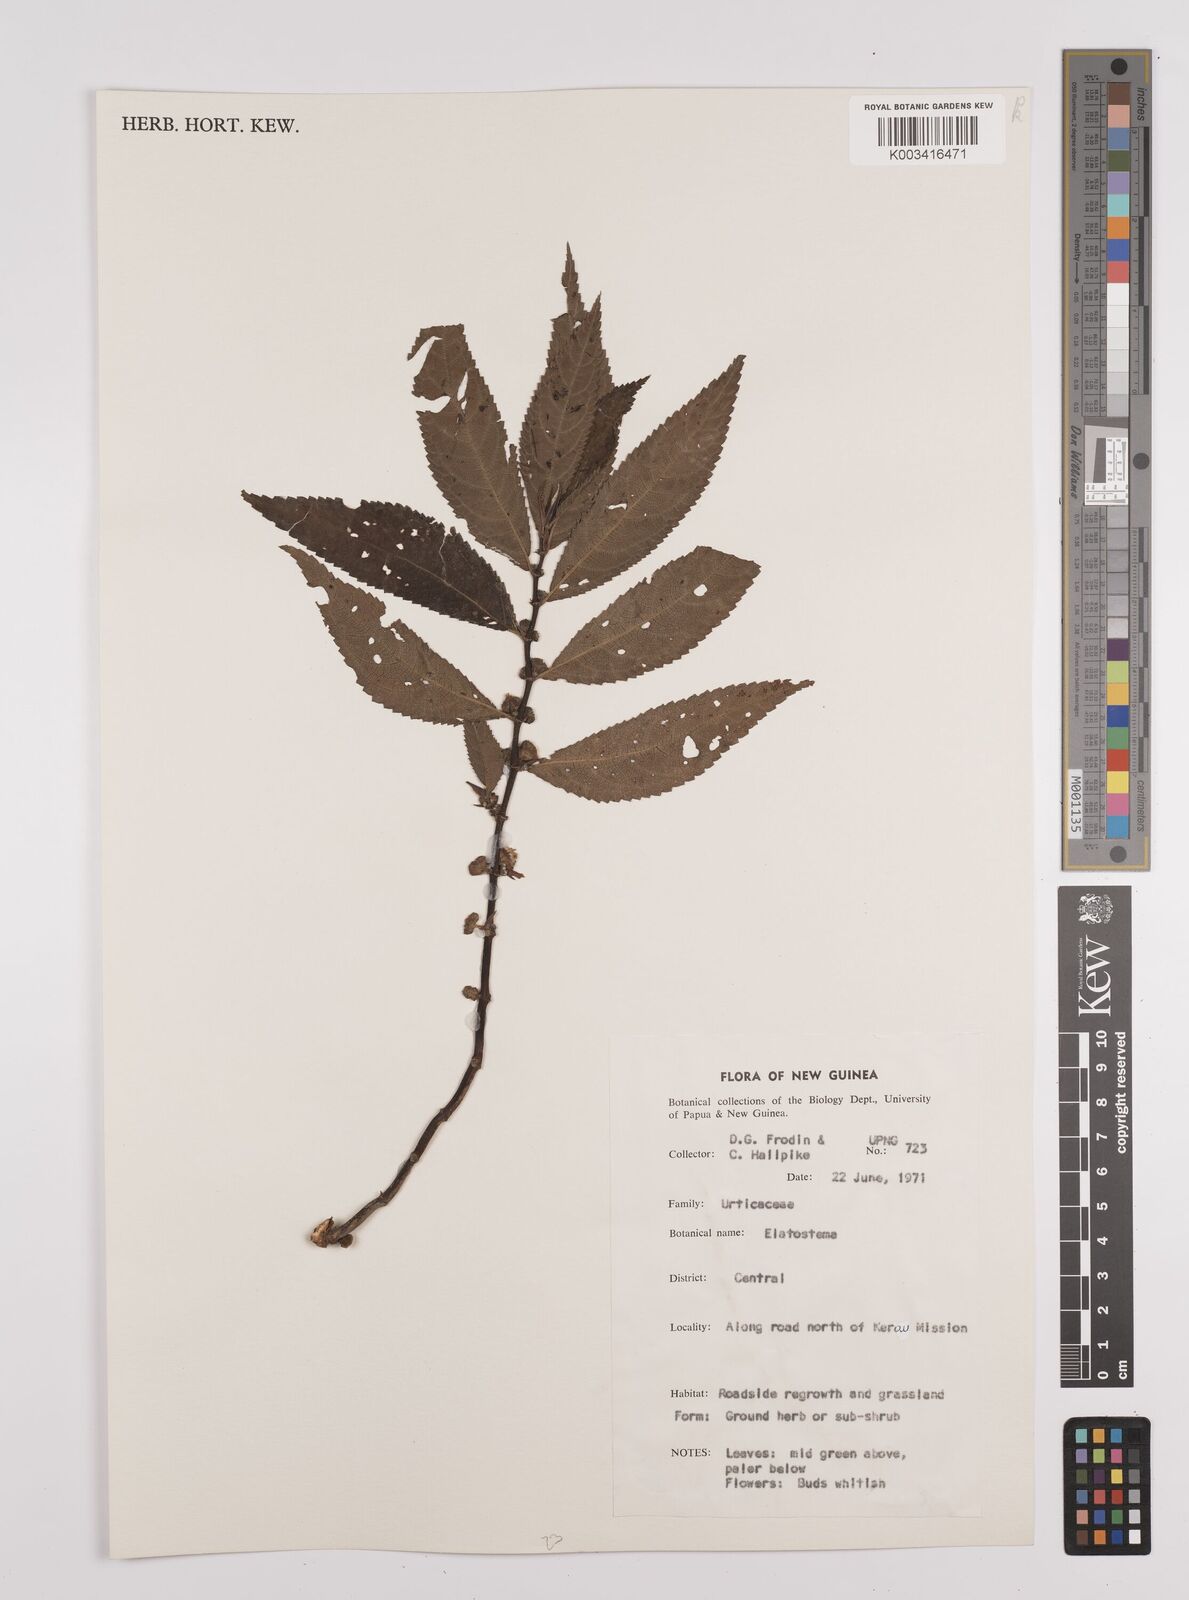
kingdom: Plantae
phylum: Tracheophyta
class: Magnoliopsida
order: Rosales
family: Urticaceae
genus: Elatostema
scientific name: Elatostema
